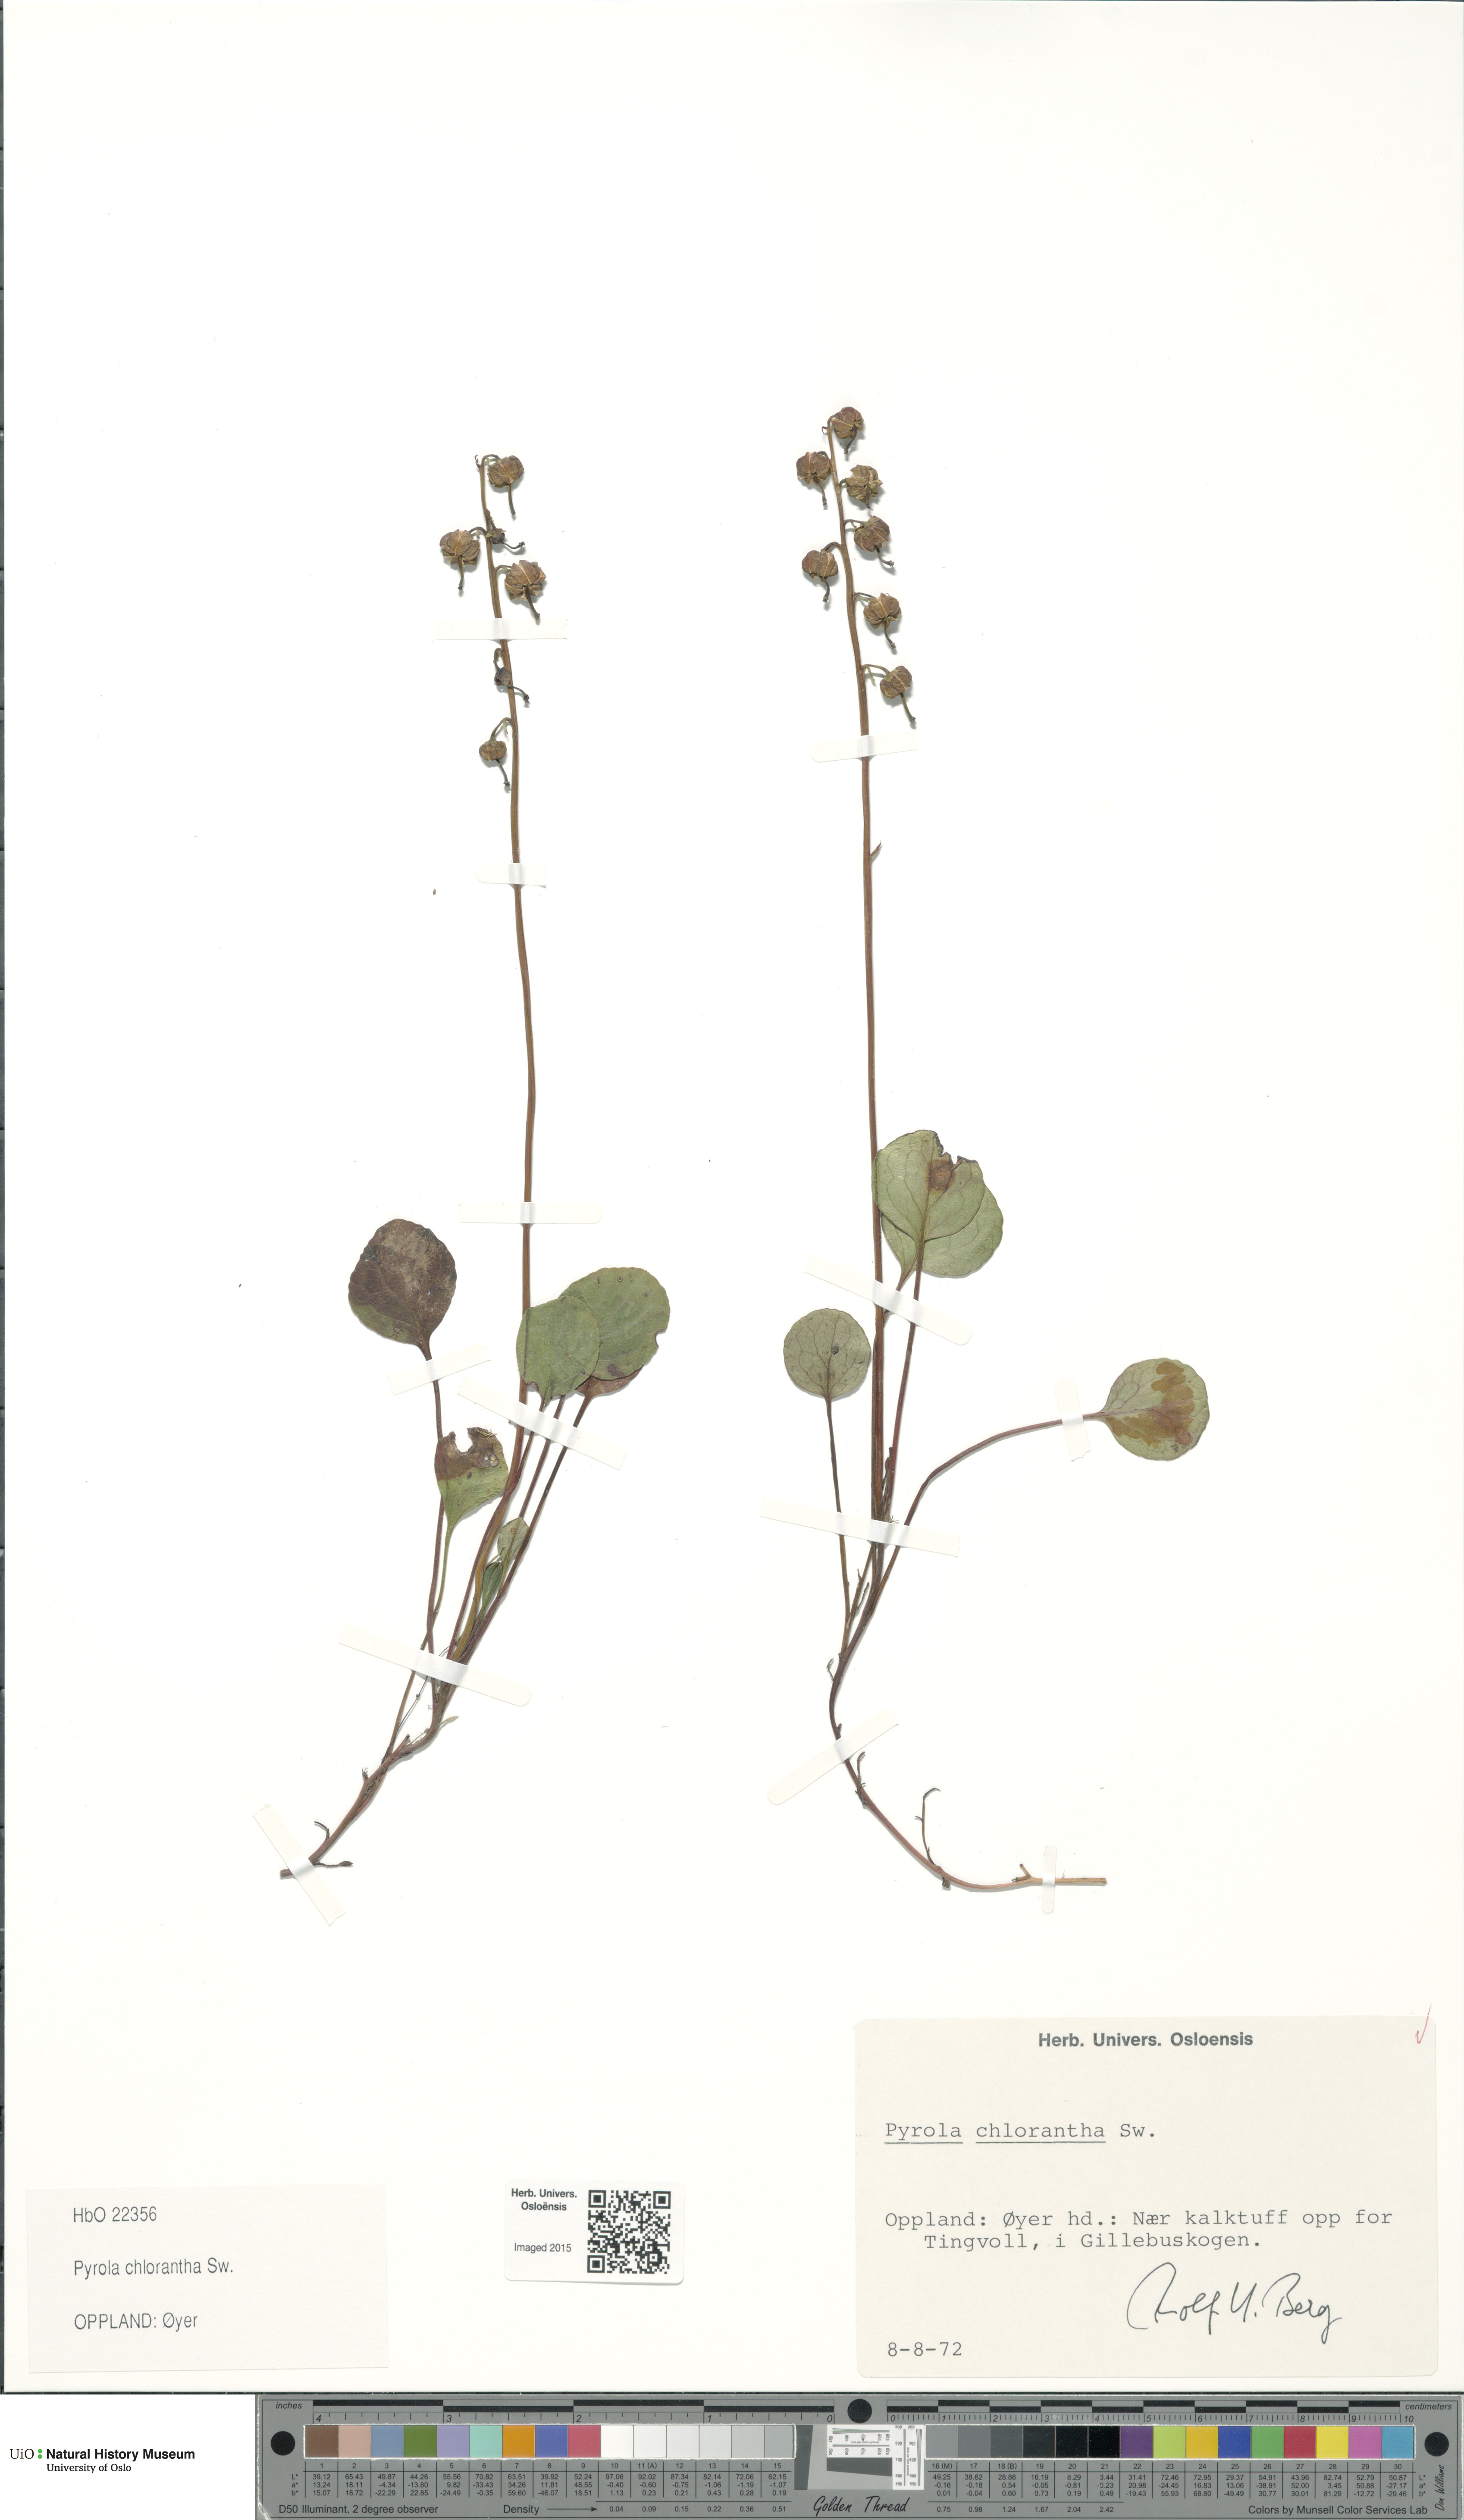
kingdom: Plantae
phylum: Tracheophyta
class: Magnoliopsida
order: Ericales
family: Ericaceae
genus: Pyrola
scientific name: Pyrola chlorantha
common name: Green wintergreen
